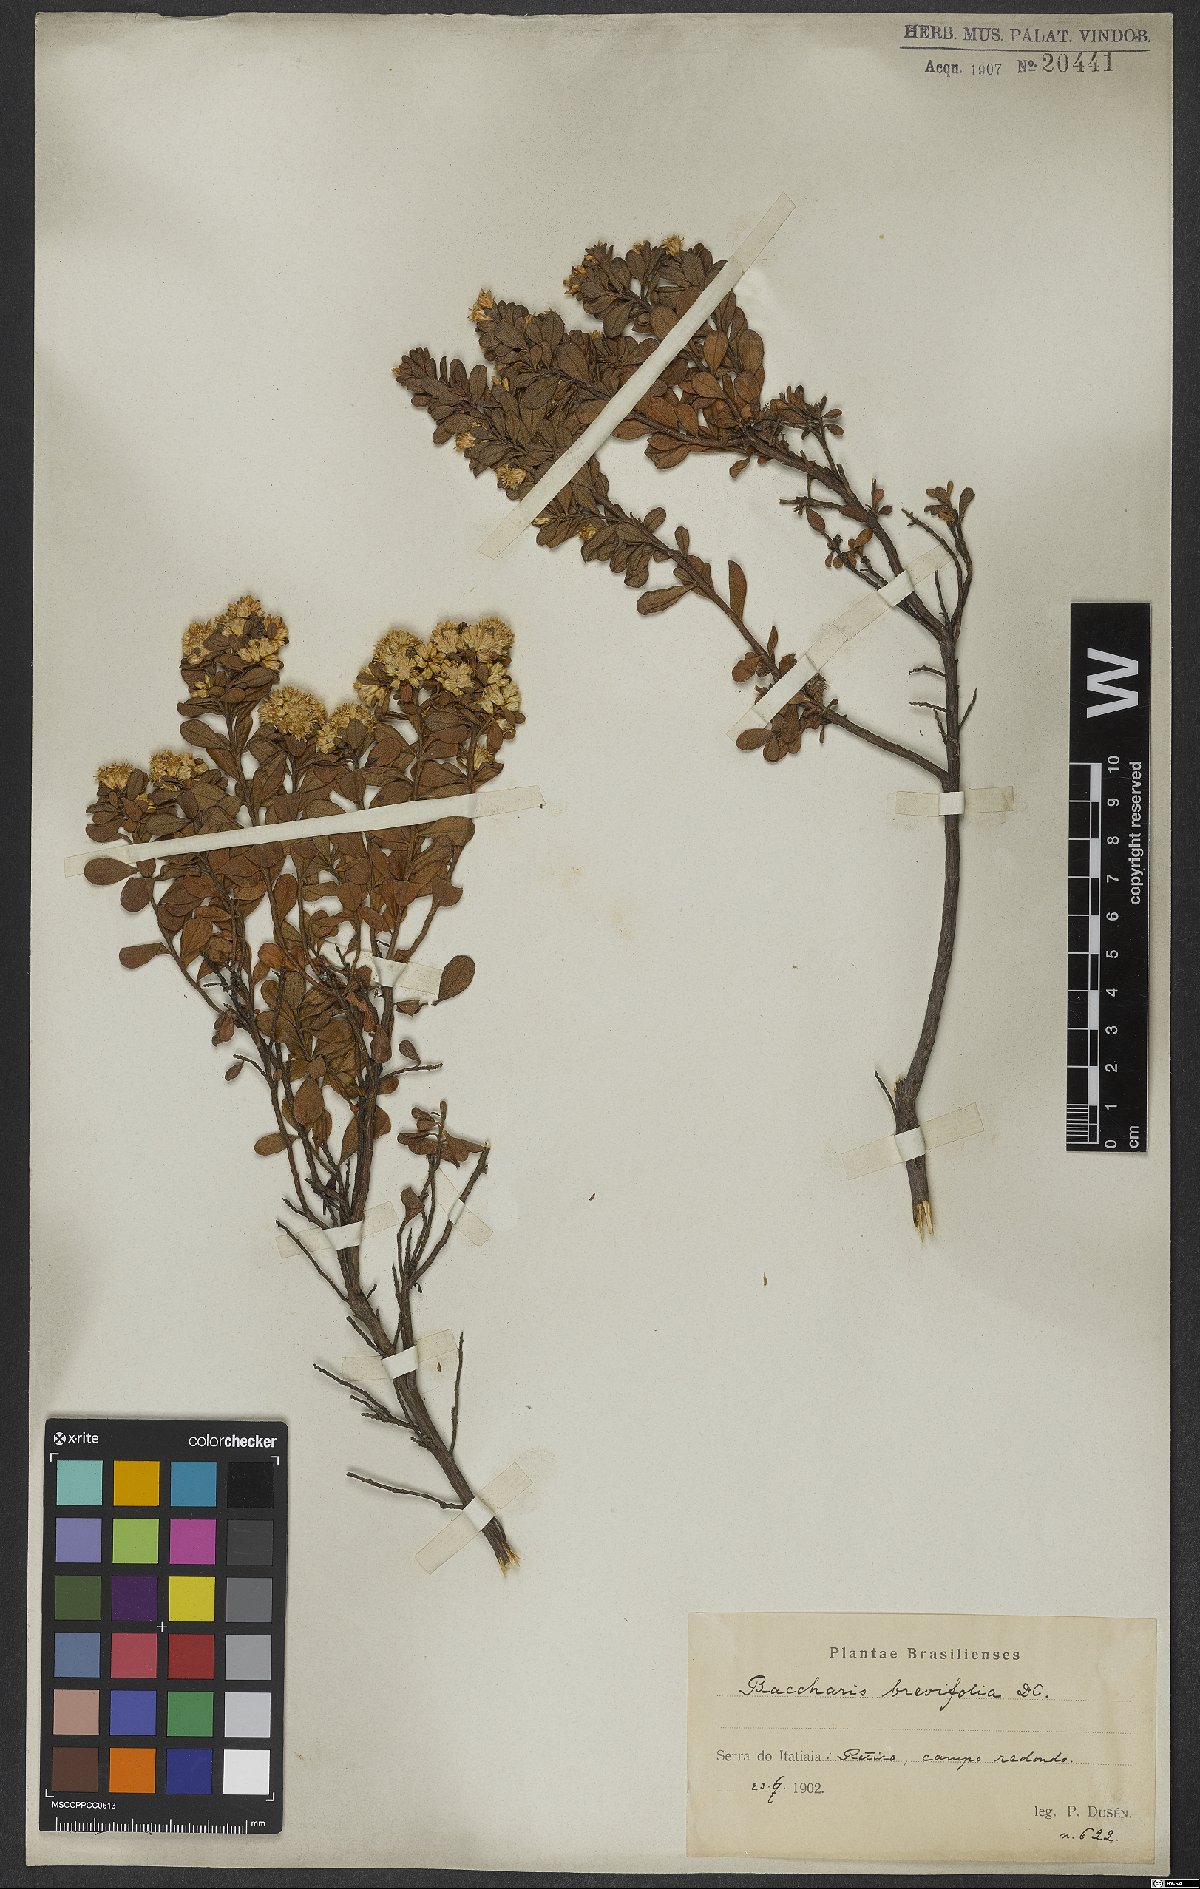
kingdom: Plantae
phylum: Tracheophyta
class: Magnoliopsida
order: Asterales
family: Asteraceae
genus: Baccharis
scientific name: Baccharis brevifolia
